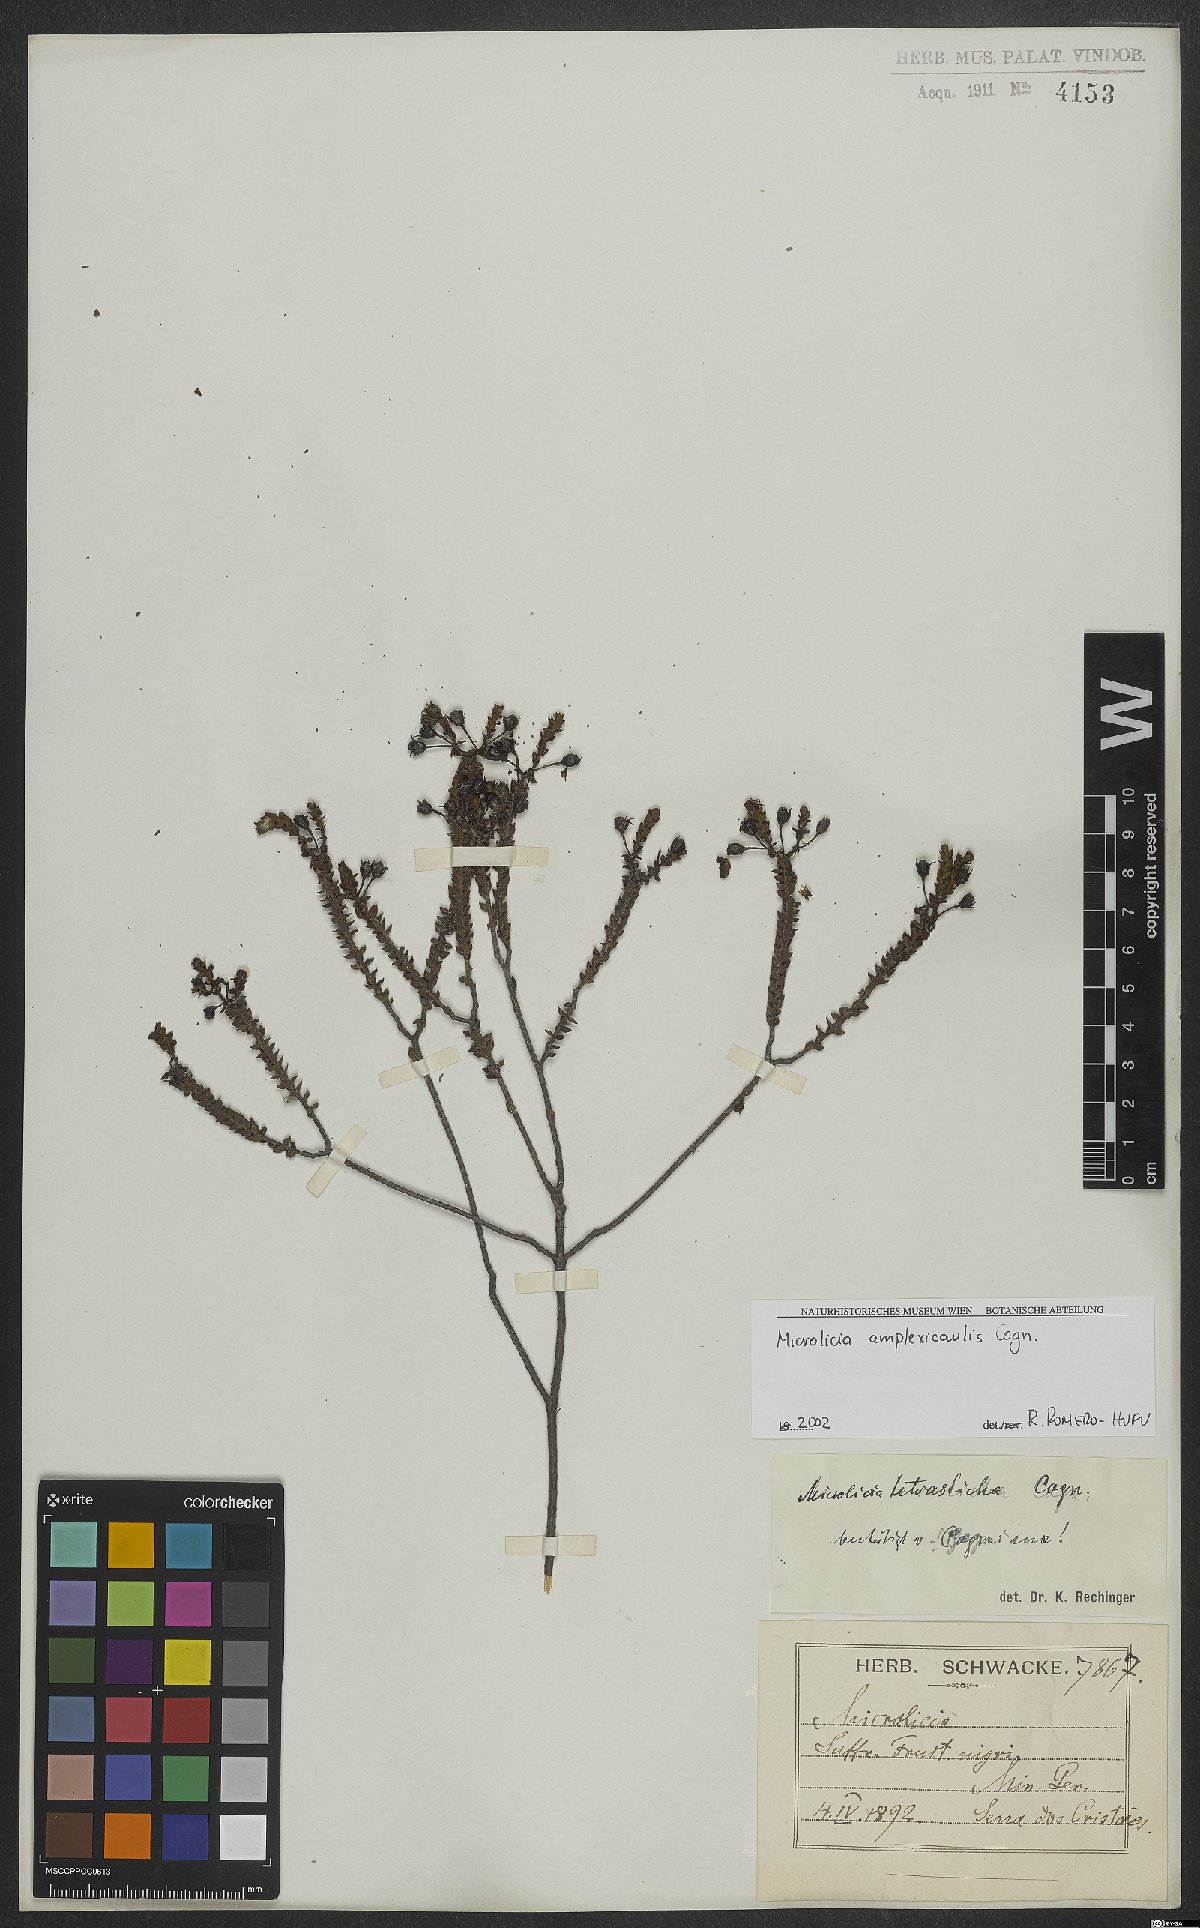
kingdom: Plantae
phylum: Tracheophyta
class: Magnoliopsida
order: Myrtales
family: Melastomataceae
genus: Microlicia
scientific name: Microlicia amplexicaulis
